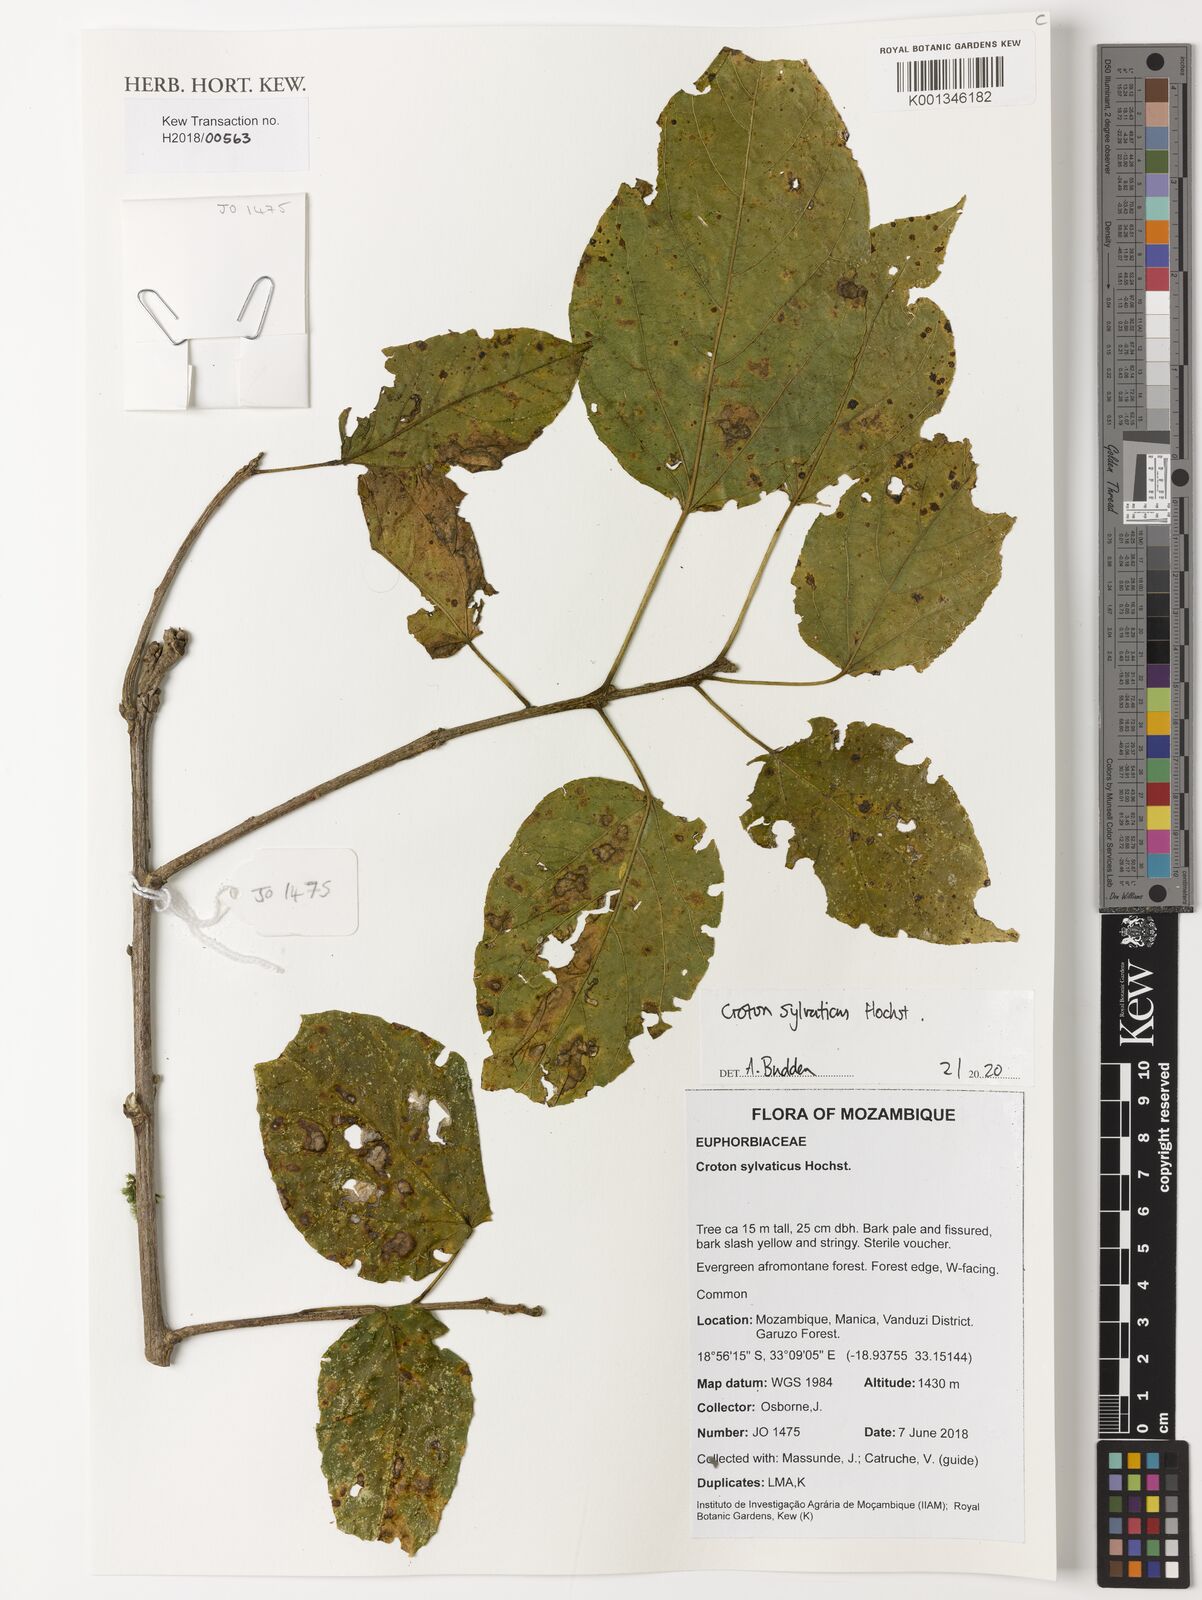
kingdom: Plantae
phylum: Tracheophyta
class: Magnoliopsida
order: Malpighiales
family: Euphorbiaceae
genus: Croton
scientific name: Croton sylvaticus
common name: Forest croton
